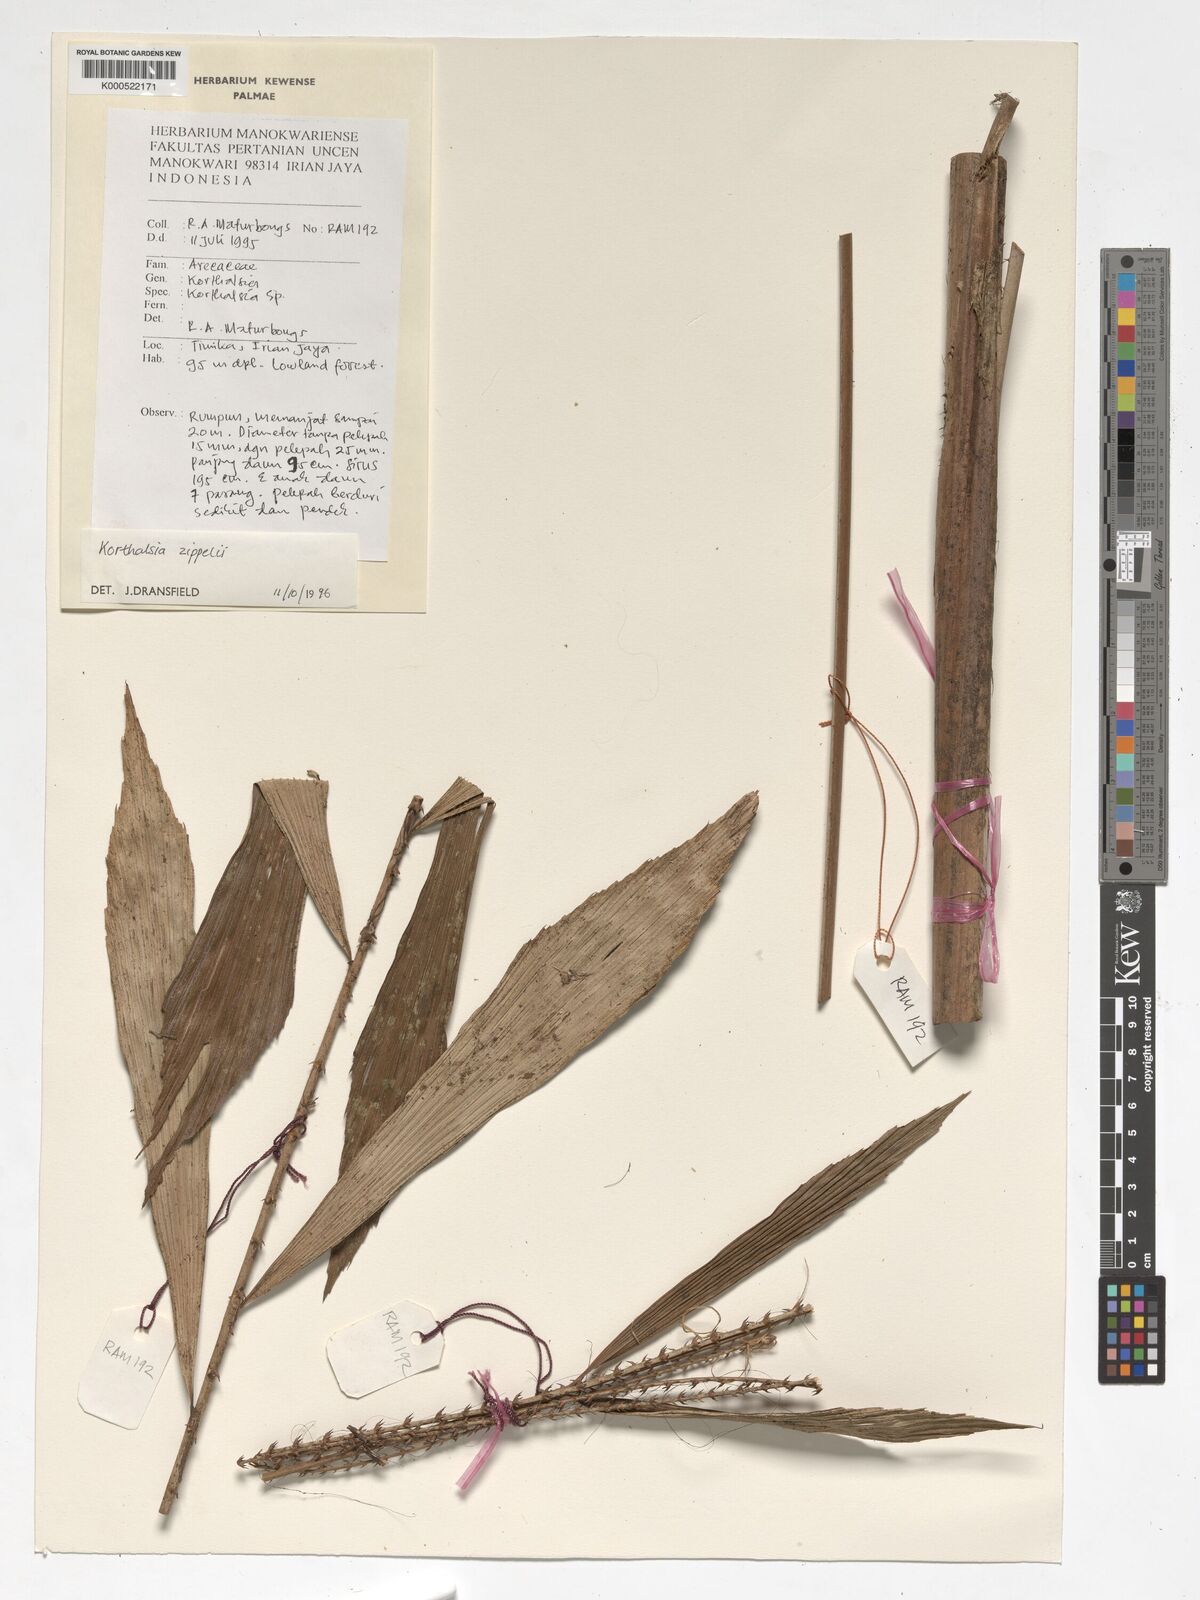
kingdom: Plantae
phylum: Tracheophyta
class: Liliopsida
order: Arecales
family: Arecaceae
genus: Korthalsia
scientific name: Korthalsia zippelii
